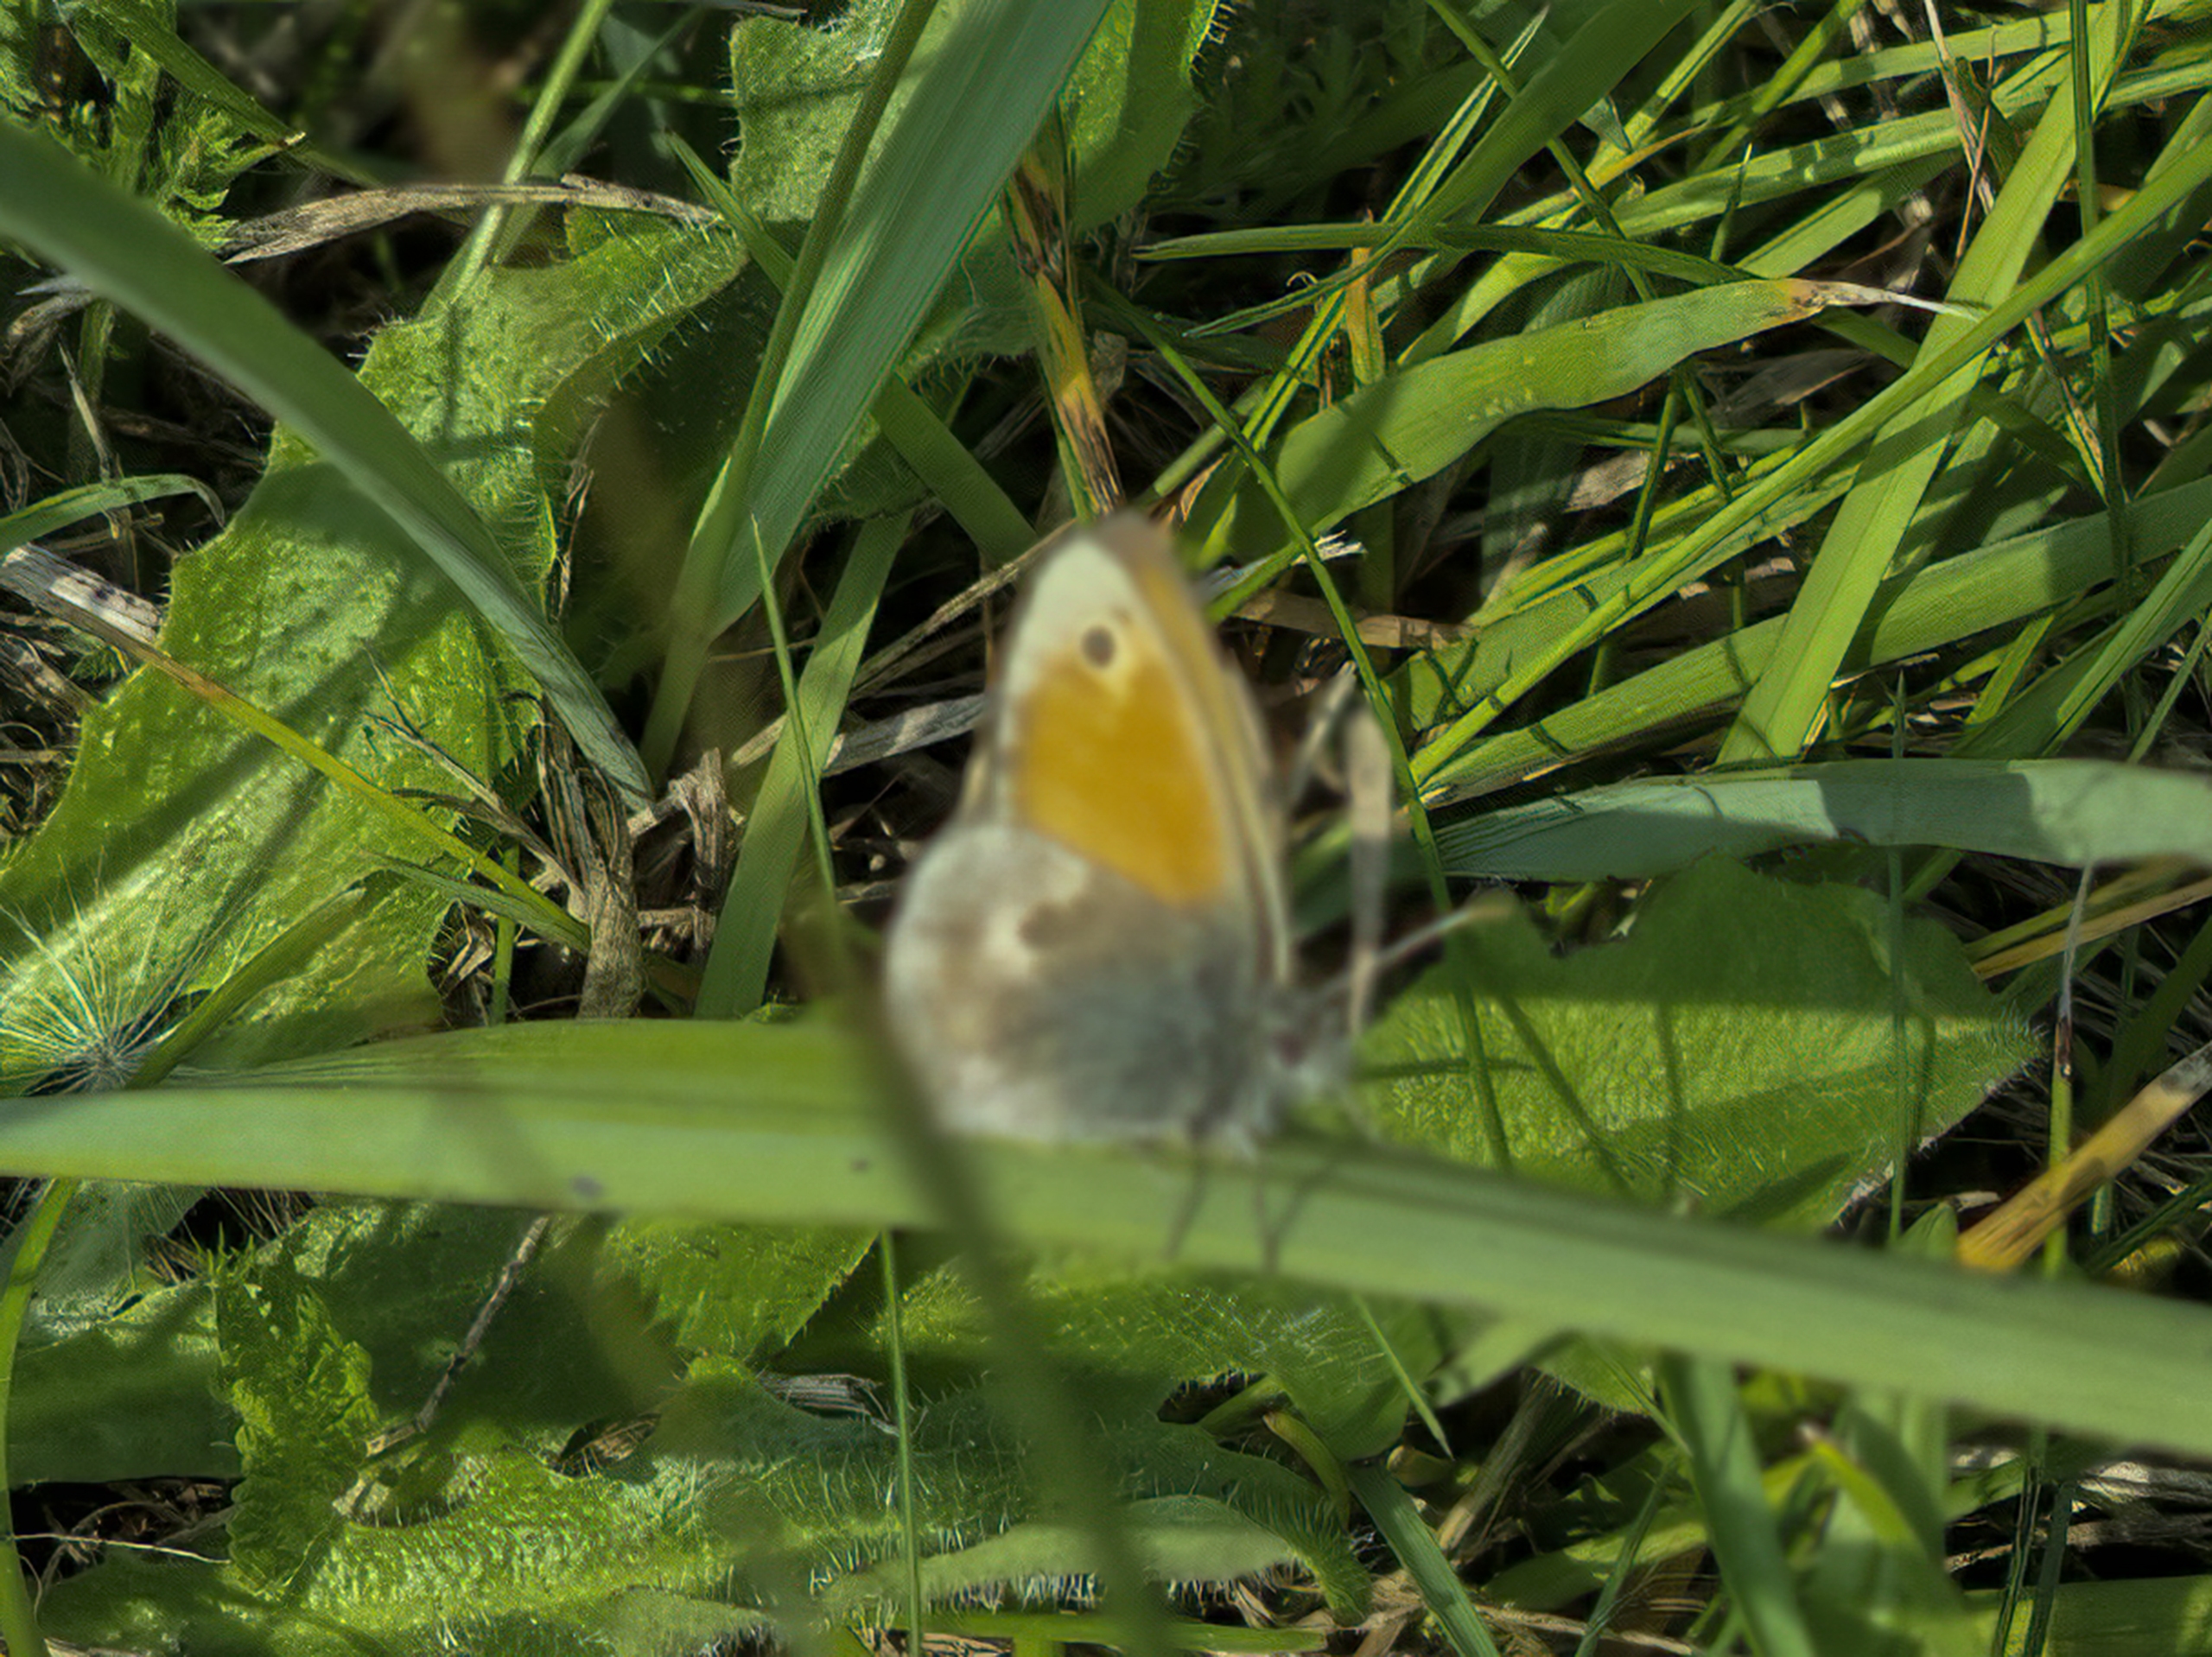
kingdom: Animalia
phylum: Arthropoda
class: Insecta
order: Lepidoptera
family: Nymphalidae
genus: Coenonympha
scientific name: Coenonympha pamphilus
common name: Okkergul randøje
